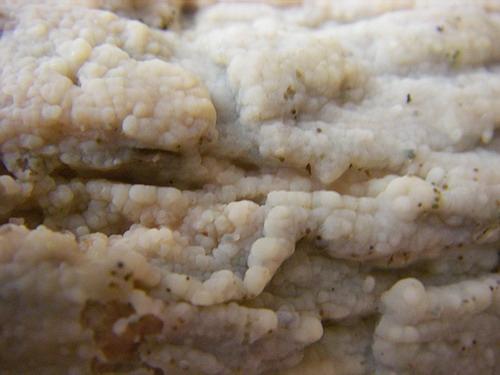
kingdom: Fungi
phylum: Basidiomycota
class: Agaricomycetes
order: Agaricales
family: Radulomycetaceae
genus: Radulomyces
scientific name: Radulomyces confluens
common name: glat naftalinskind
